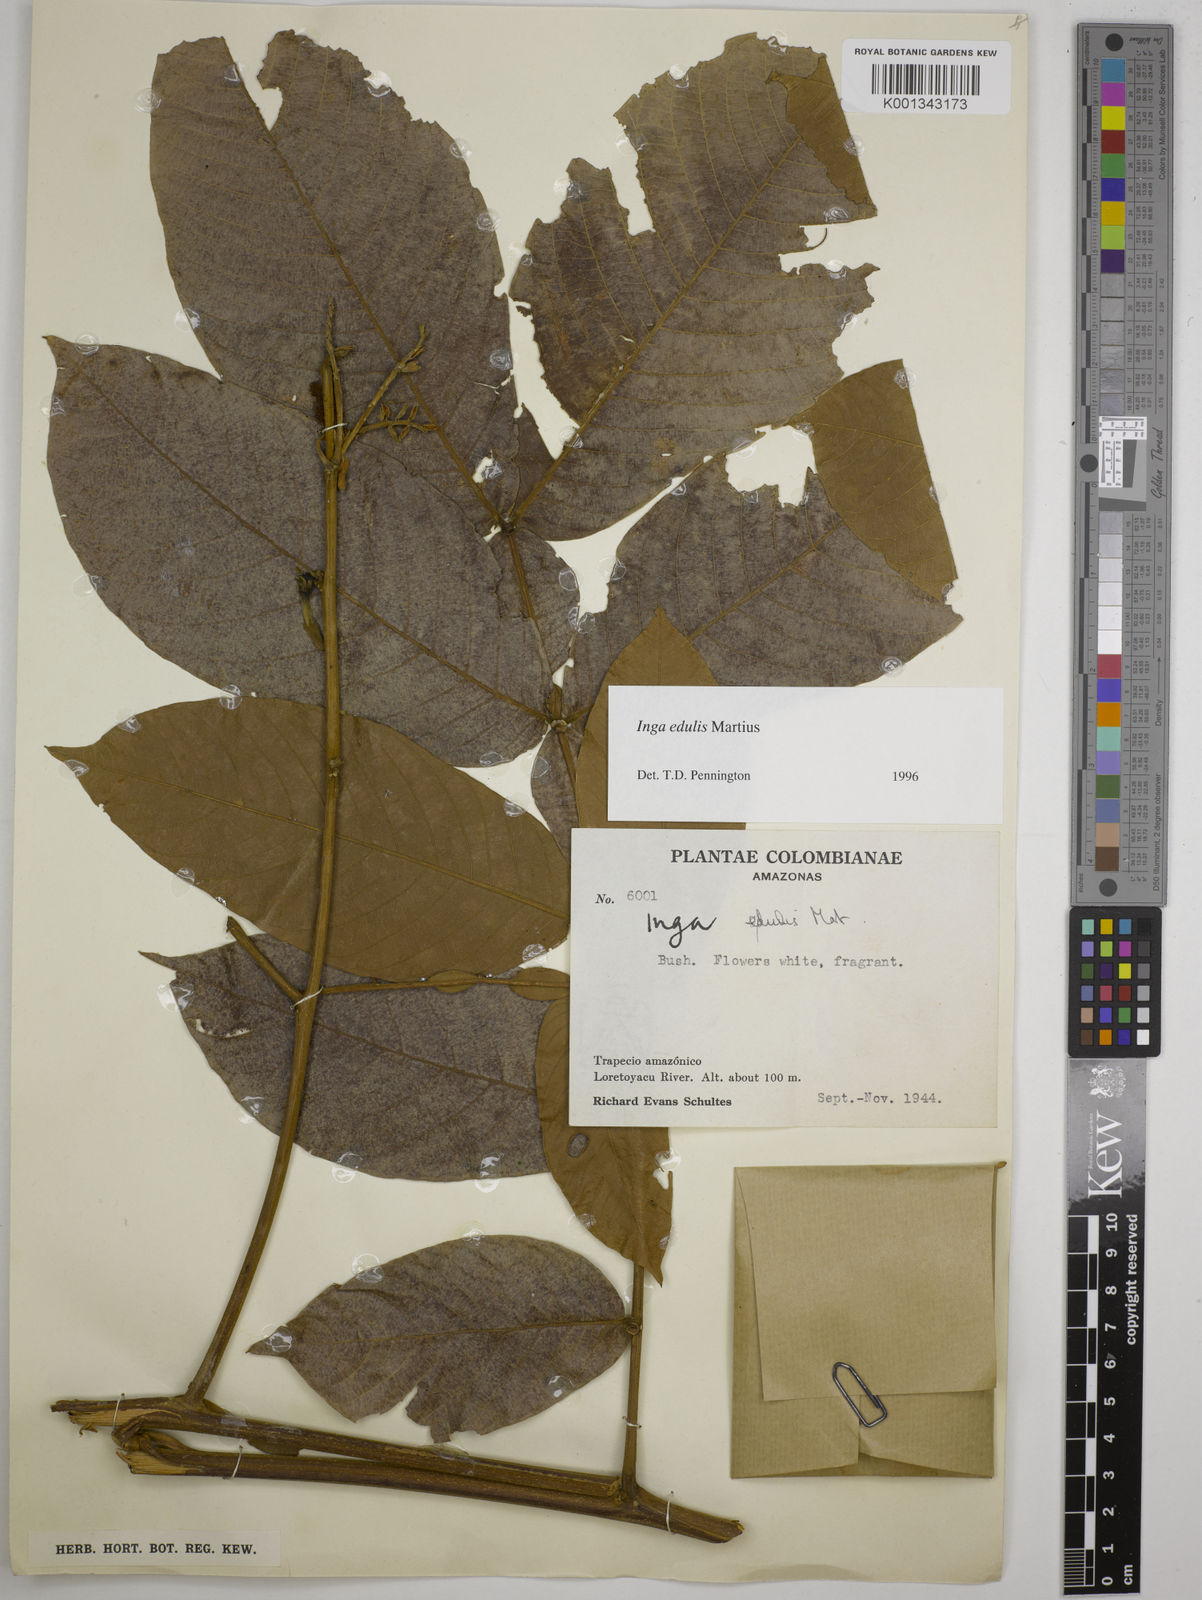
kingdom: Plantae
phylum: Tracheophyta
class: Magnoliopsida
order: Fabales
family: Fabaceae
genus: Inga
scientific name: Inga edulis
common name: Ice cream bean
